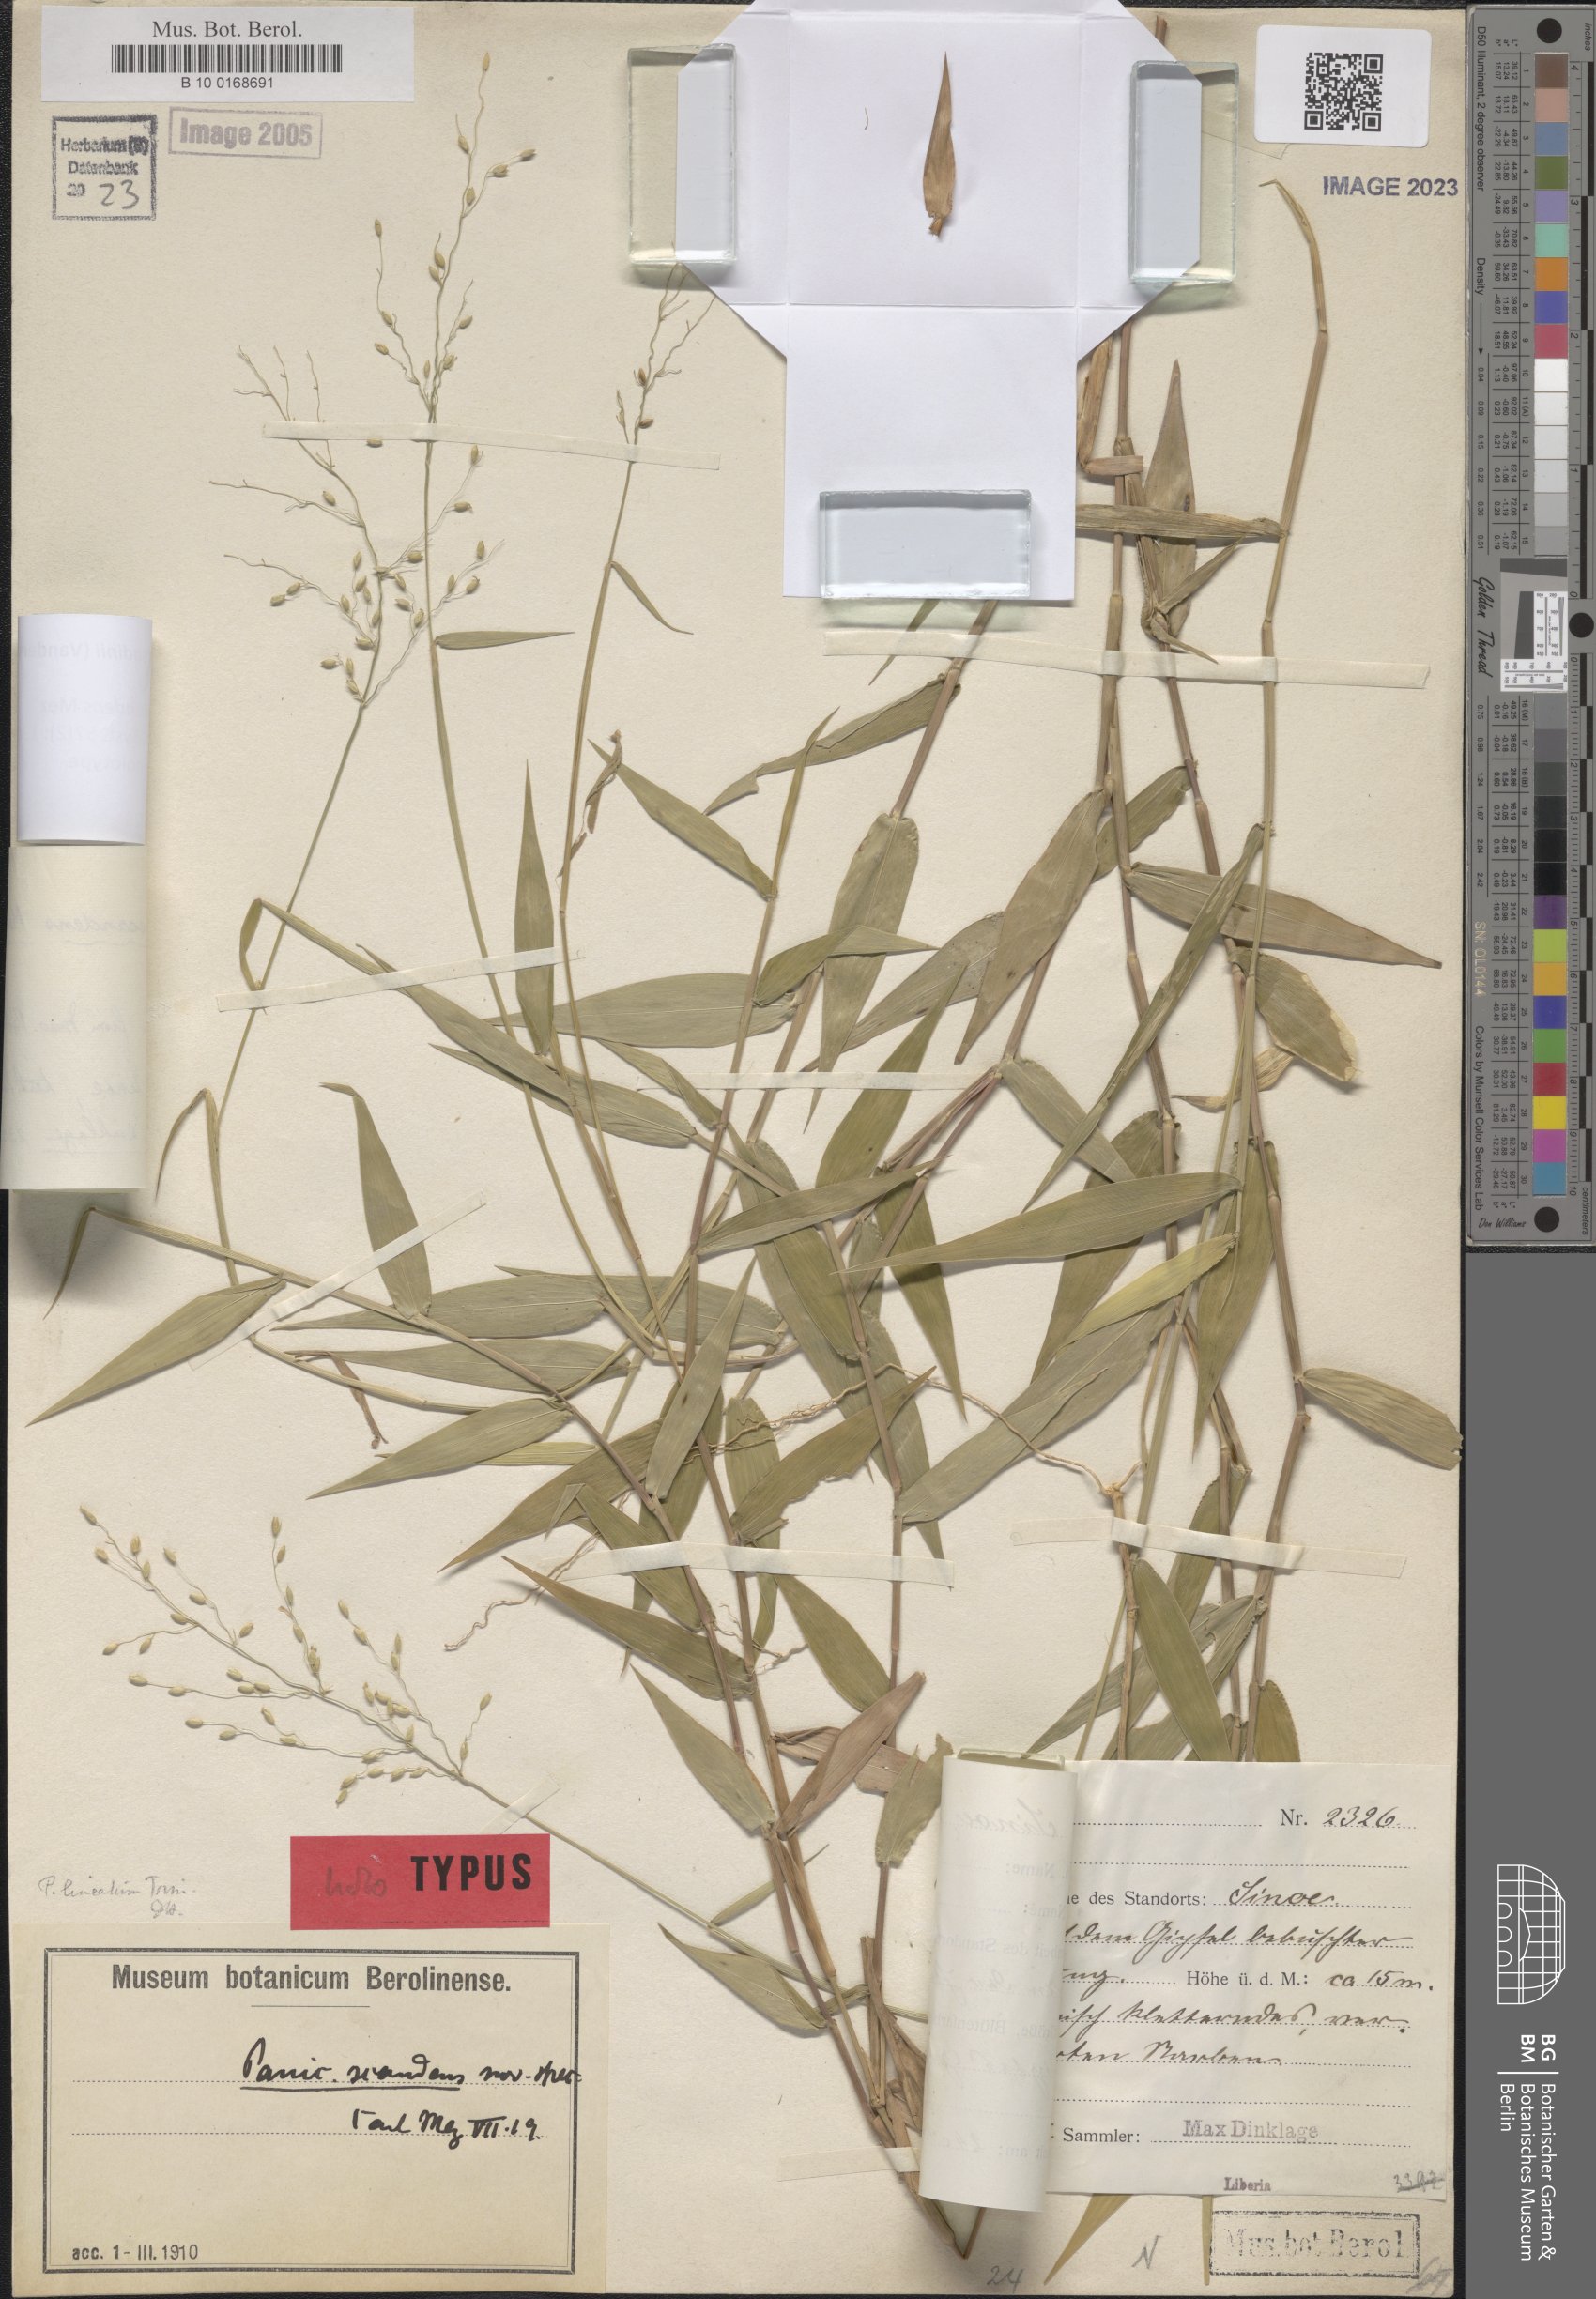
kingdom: Plantae
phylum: Tracheophyta
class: Liliopsida
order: Poales
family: Poaceae
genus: Adenochloa
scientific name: Adenochloa sadinii
